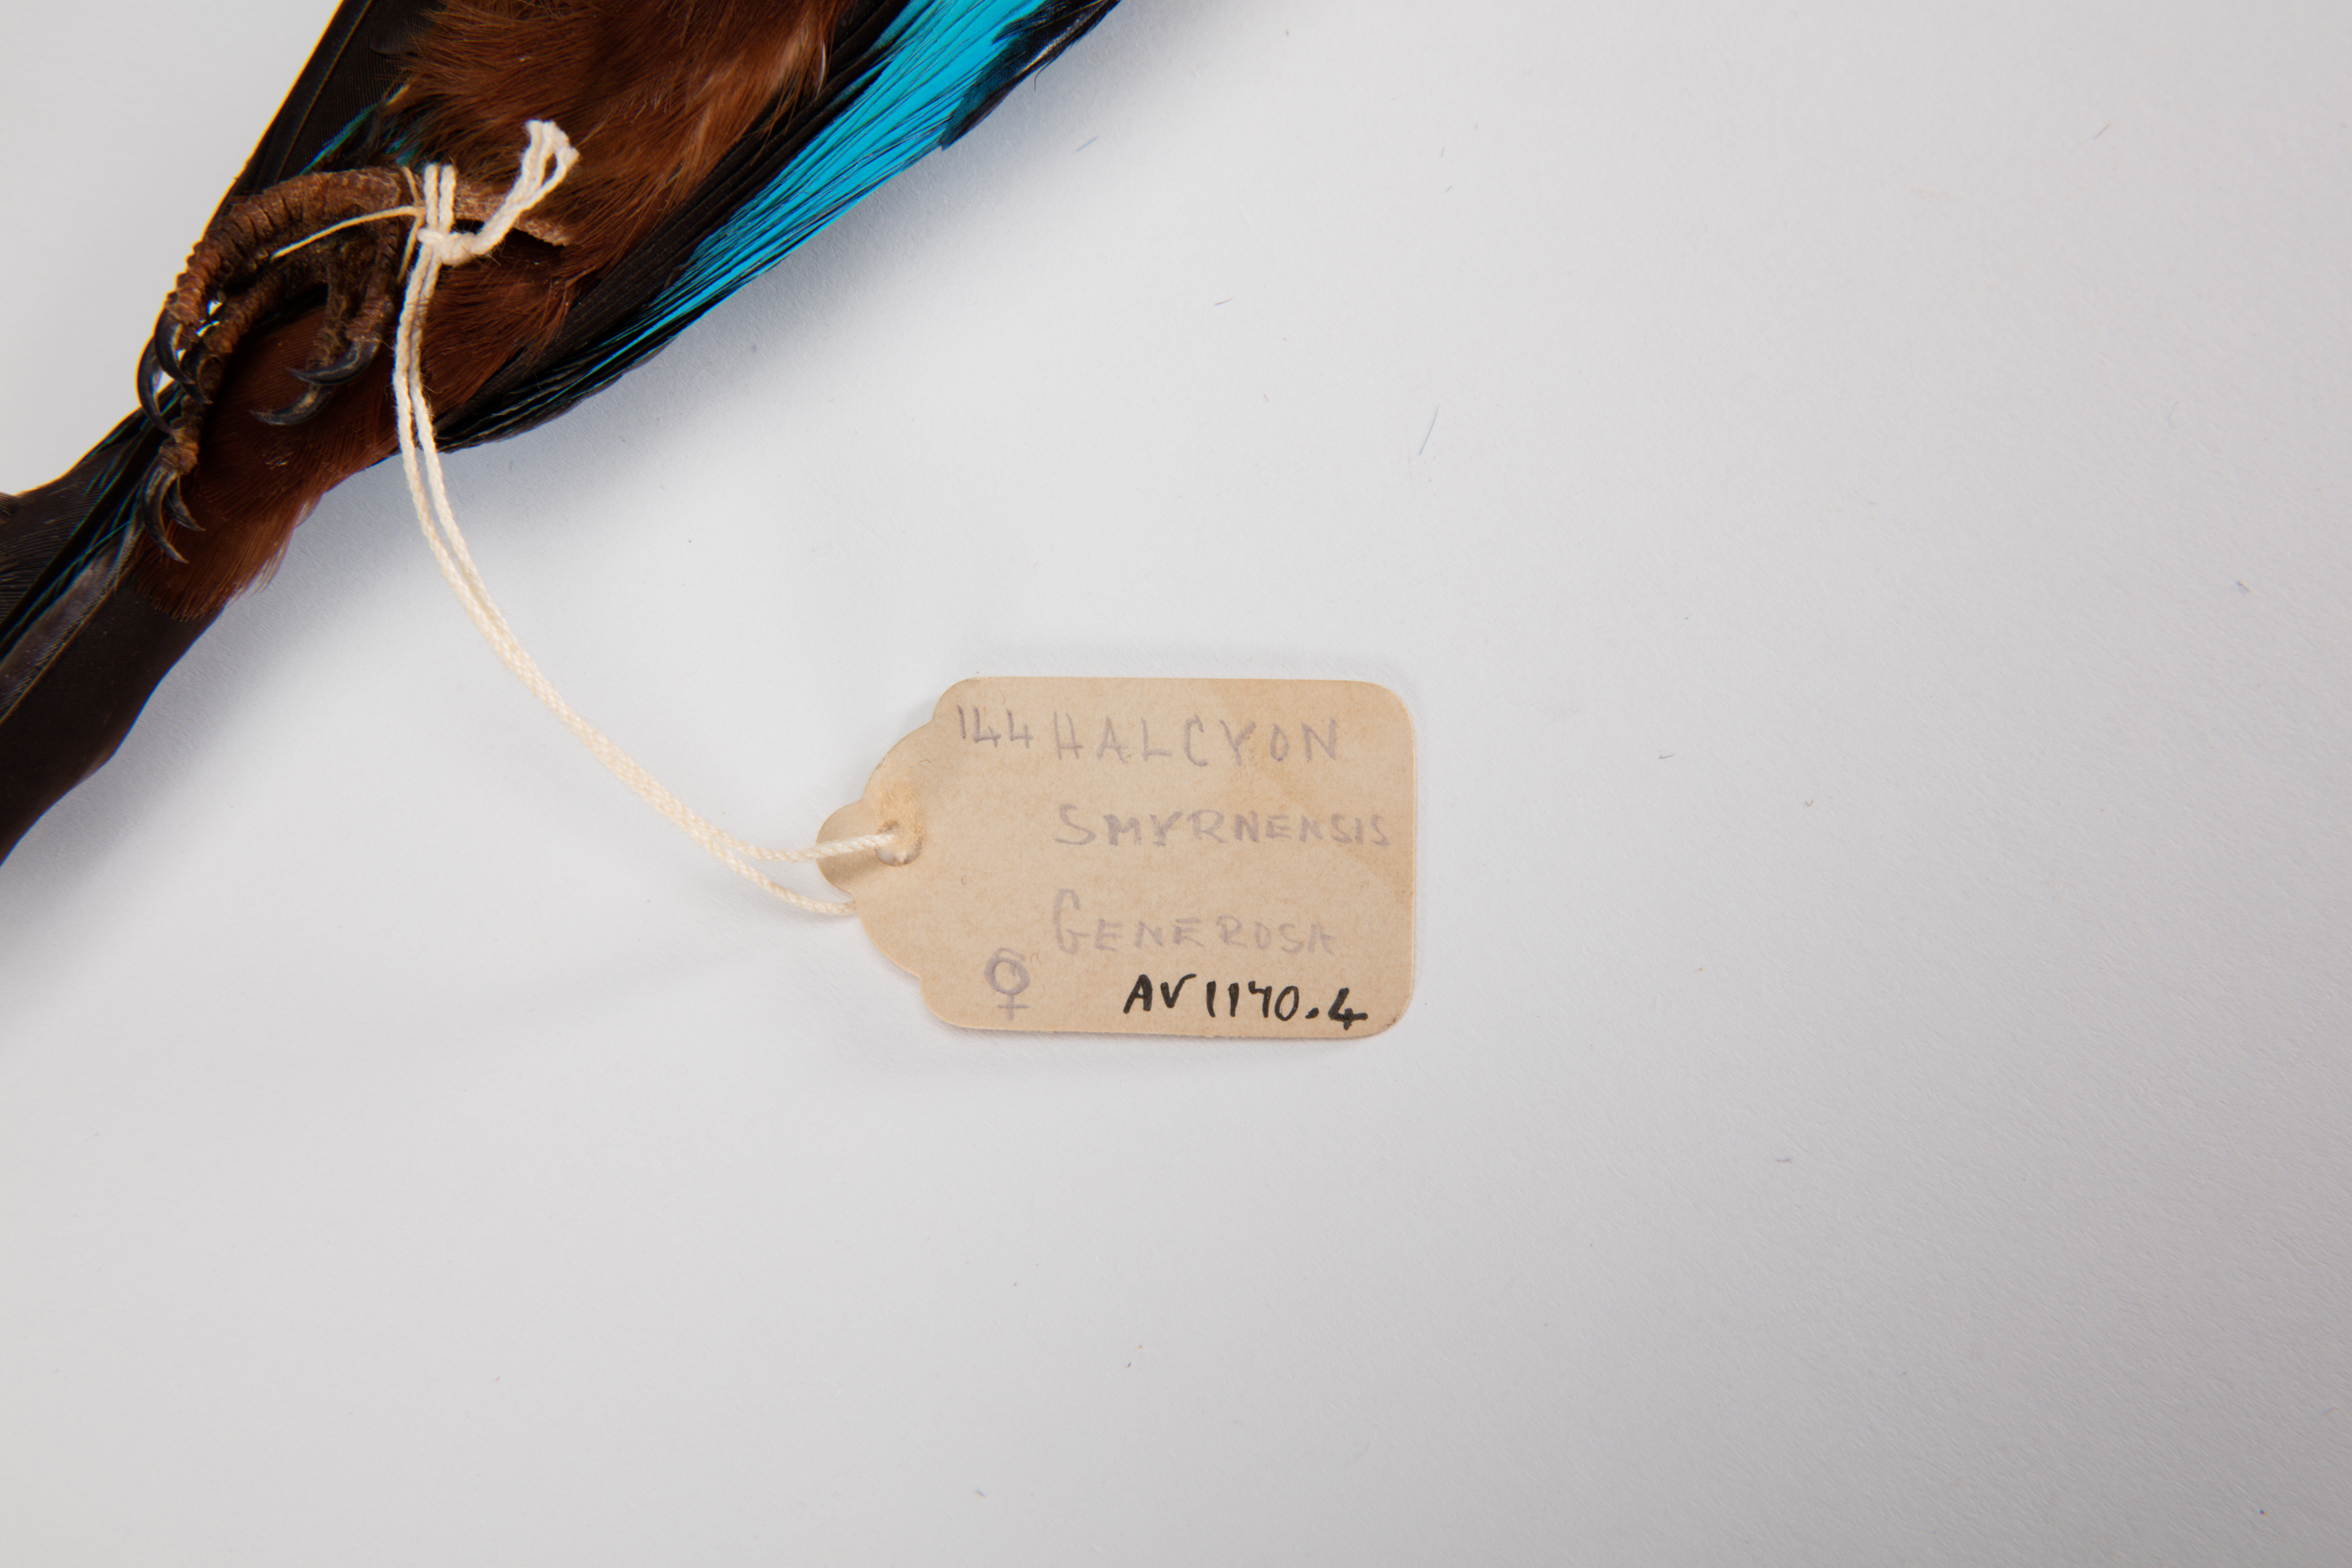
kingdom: Animalia
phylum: Chordata
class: Aves
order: Coraciiformes
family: Alcedinidae
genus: Halcyon
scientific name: Halcyon smyrnensis
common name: White-throated kingfisher
